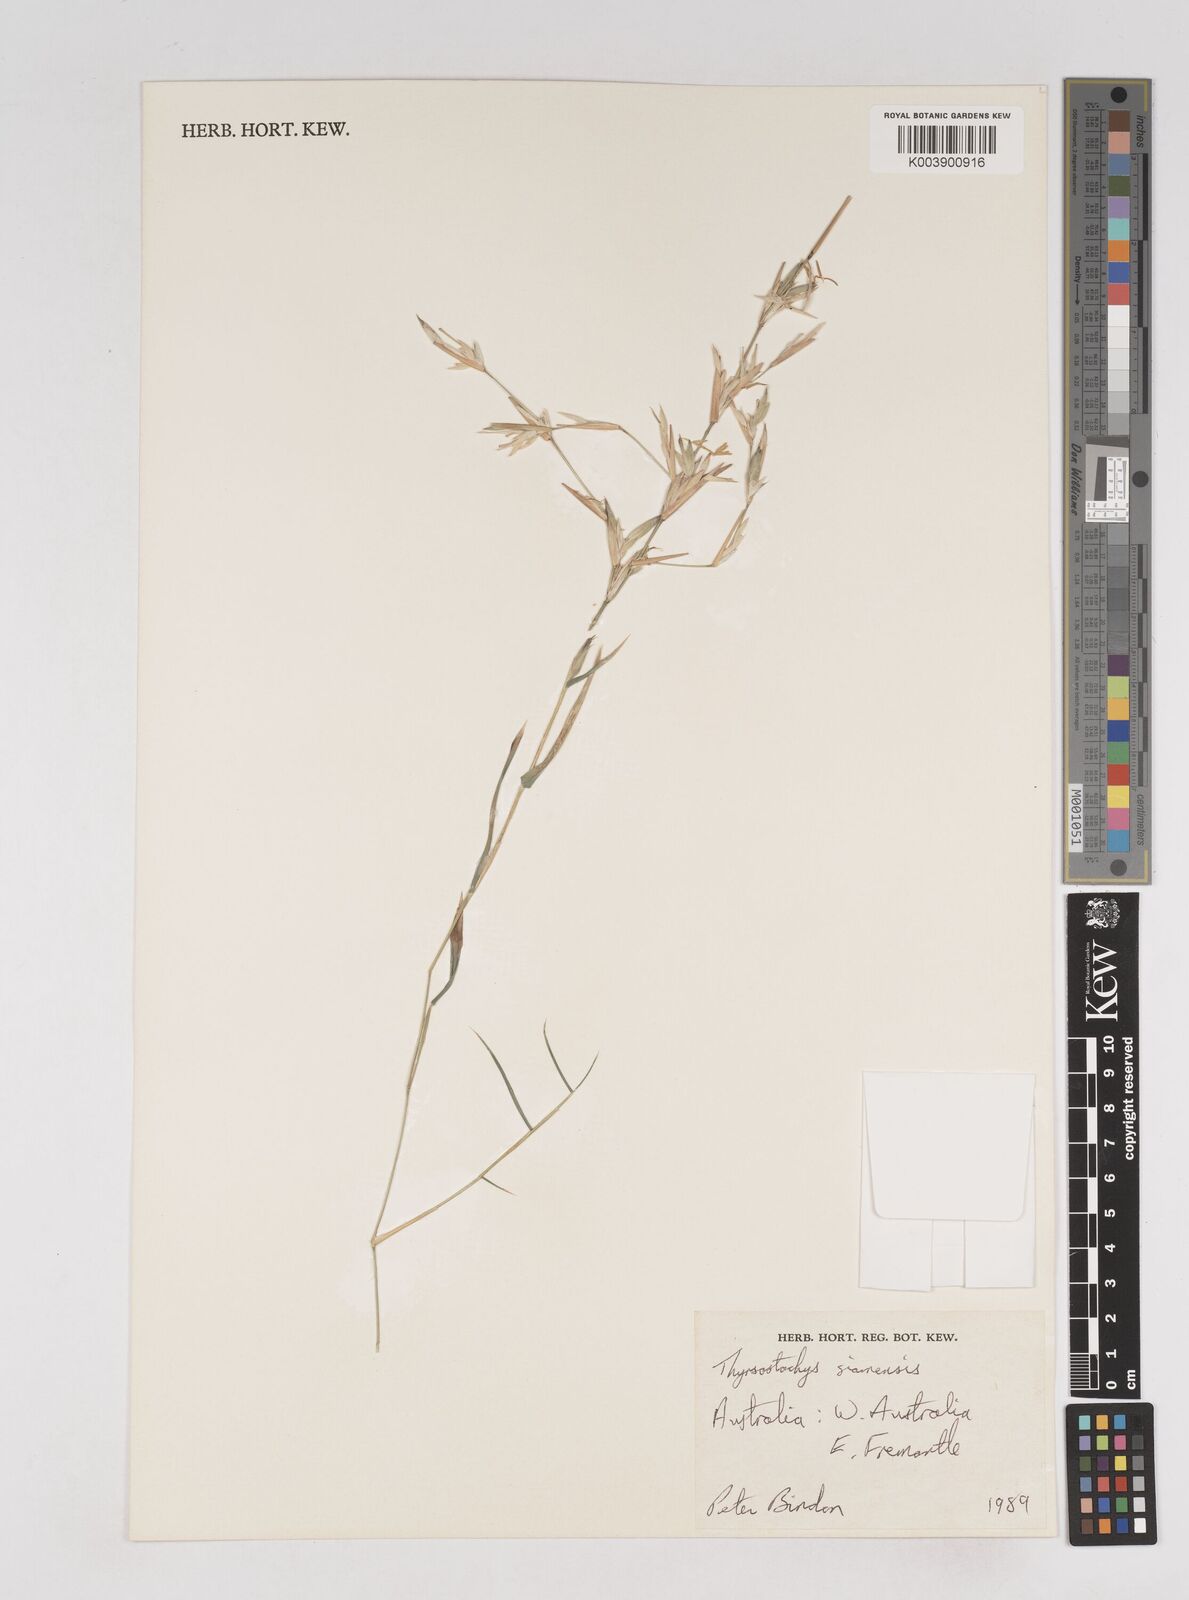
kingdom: Plantae
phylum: Tracheophyta
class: Liliopsida
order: Poales
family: Poaceae
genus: Thyrsostachys
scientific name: Thyrsostachys siamensis
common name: Thailand bamboo
